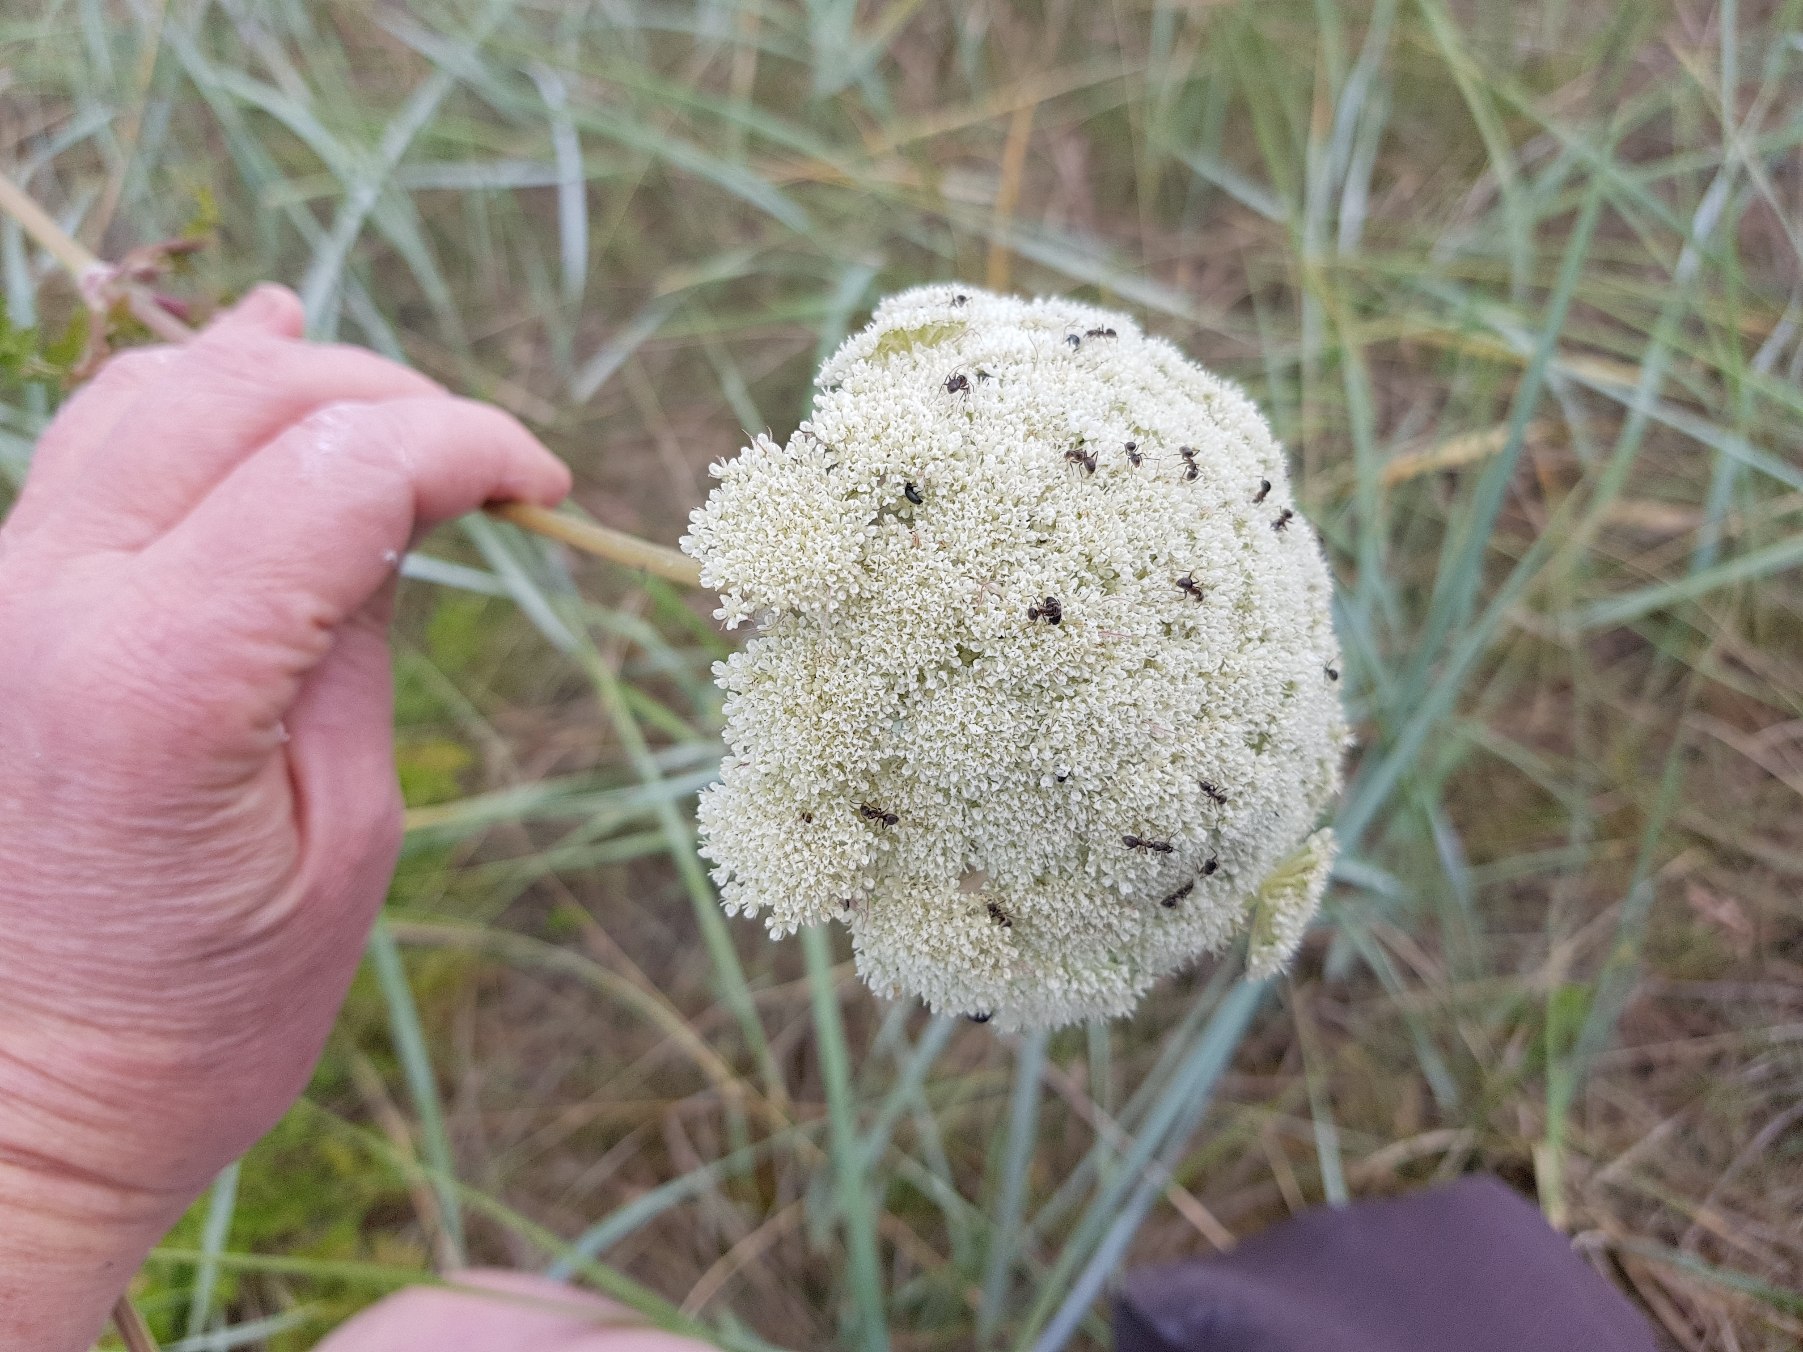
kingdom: Plantae
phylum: Tracheophyta
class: Magnoliopsida
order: Apiales
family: Apiaceae
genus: Seseli
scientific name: Seseli libanotis
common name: Hjorterod
